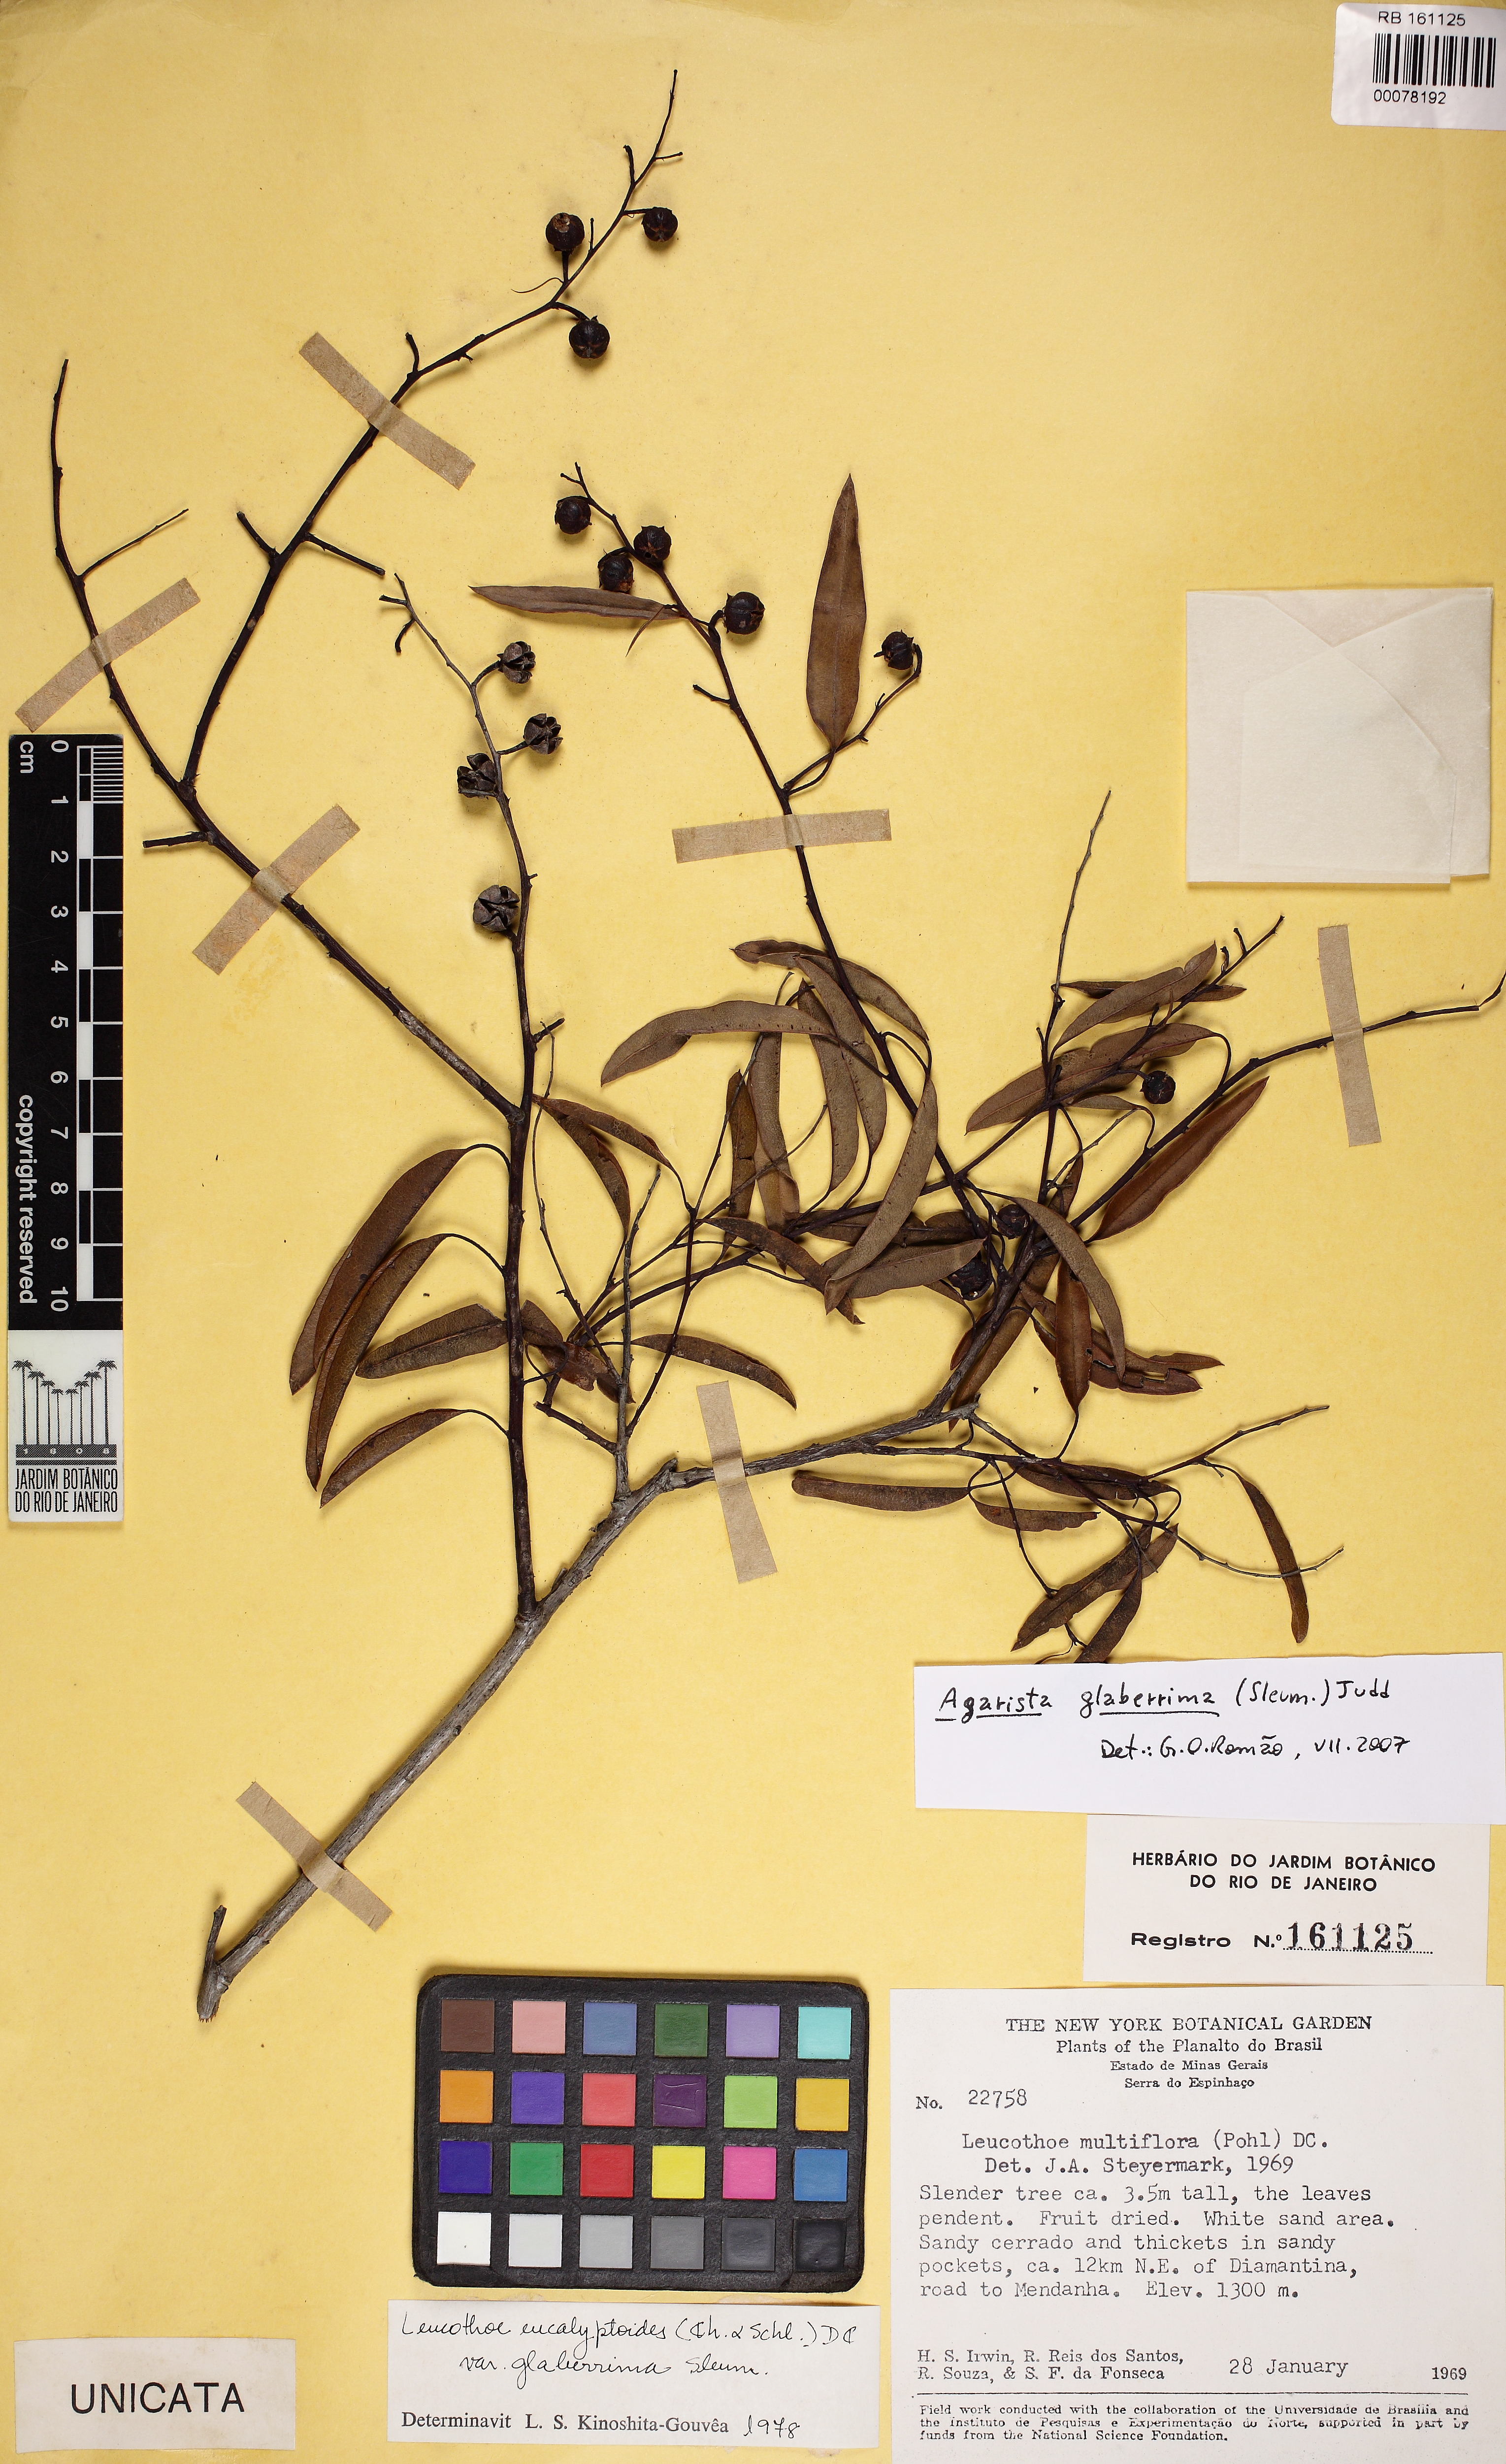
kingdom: Plantae
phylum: Tracheophyta
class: Magnoliopsida
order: Ericales
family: Ericaceae
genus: Agarista
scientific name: Agarista coriifolia
